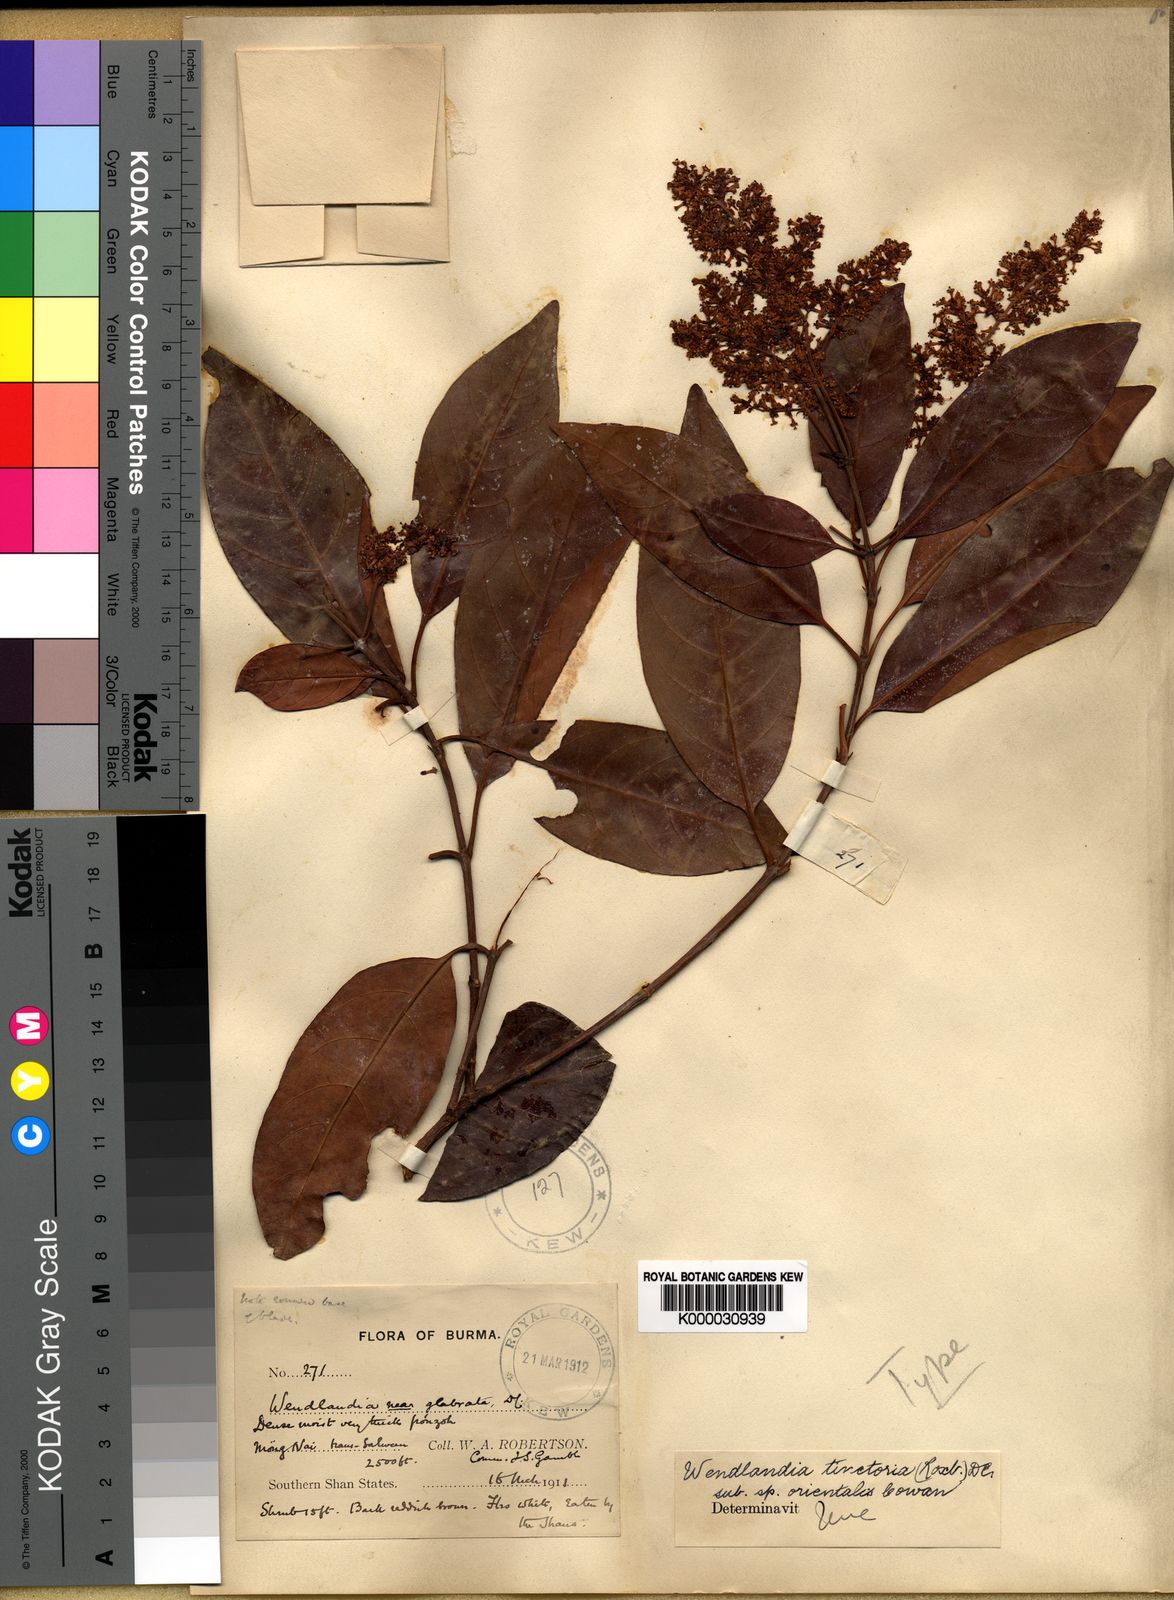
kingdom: Plantae
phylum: Tracheophyta
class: Magnoliopsida
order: Gentianales
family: Rubiaceae
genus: Wendlandia
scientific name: Wendlandia tinctoria
